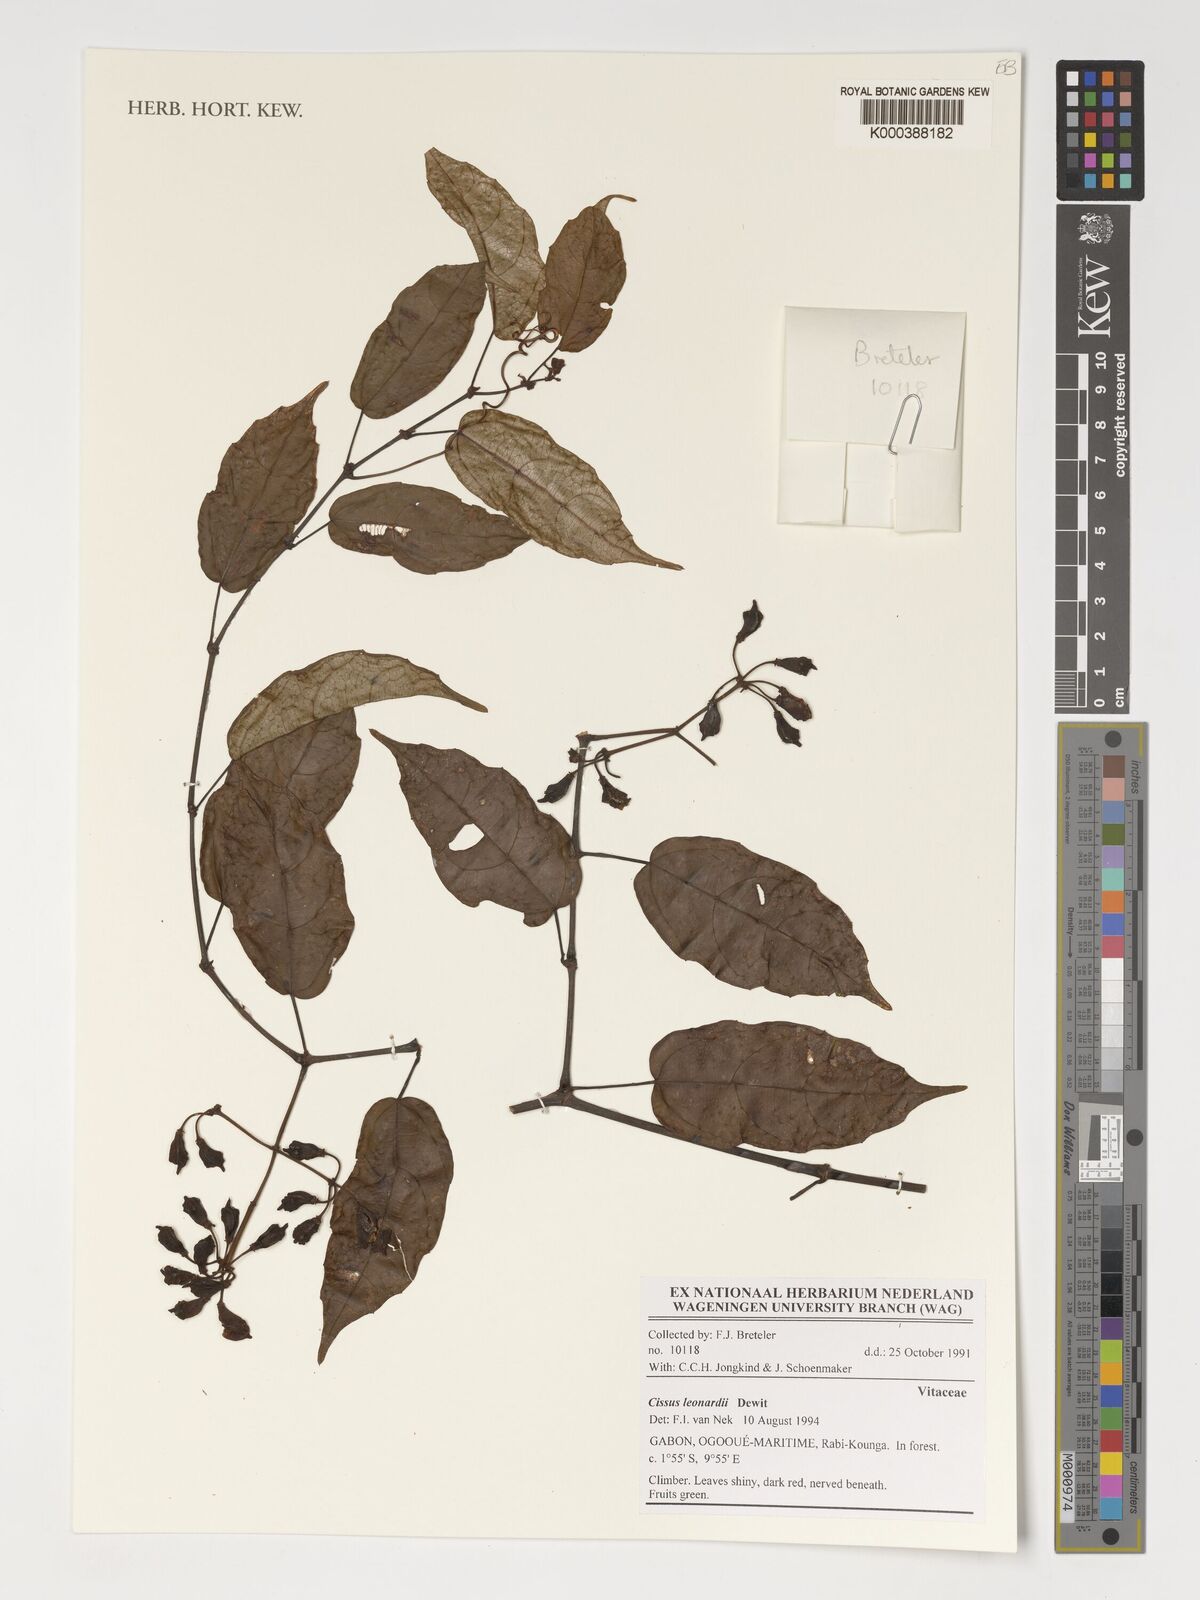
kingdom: Plantae
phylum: Tracheophyta
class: Magnoliopsida
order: Vitales
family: Vitaceae
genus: Cissus
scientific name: Cissus leonardii
